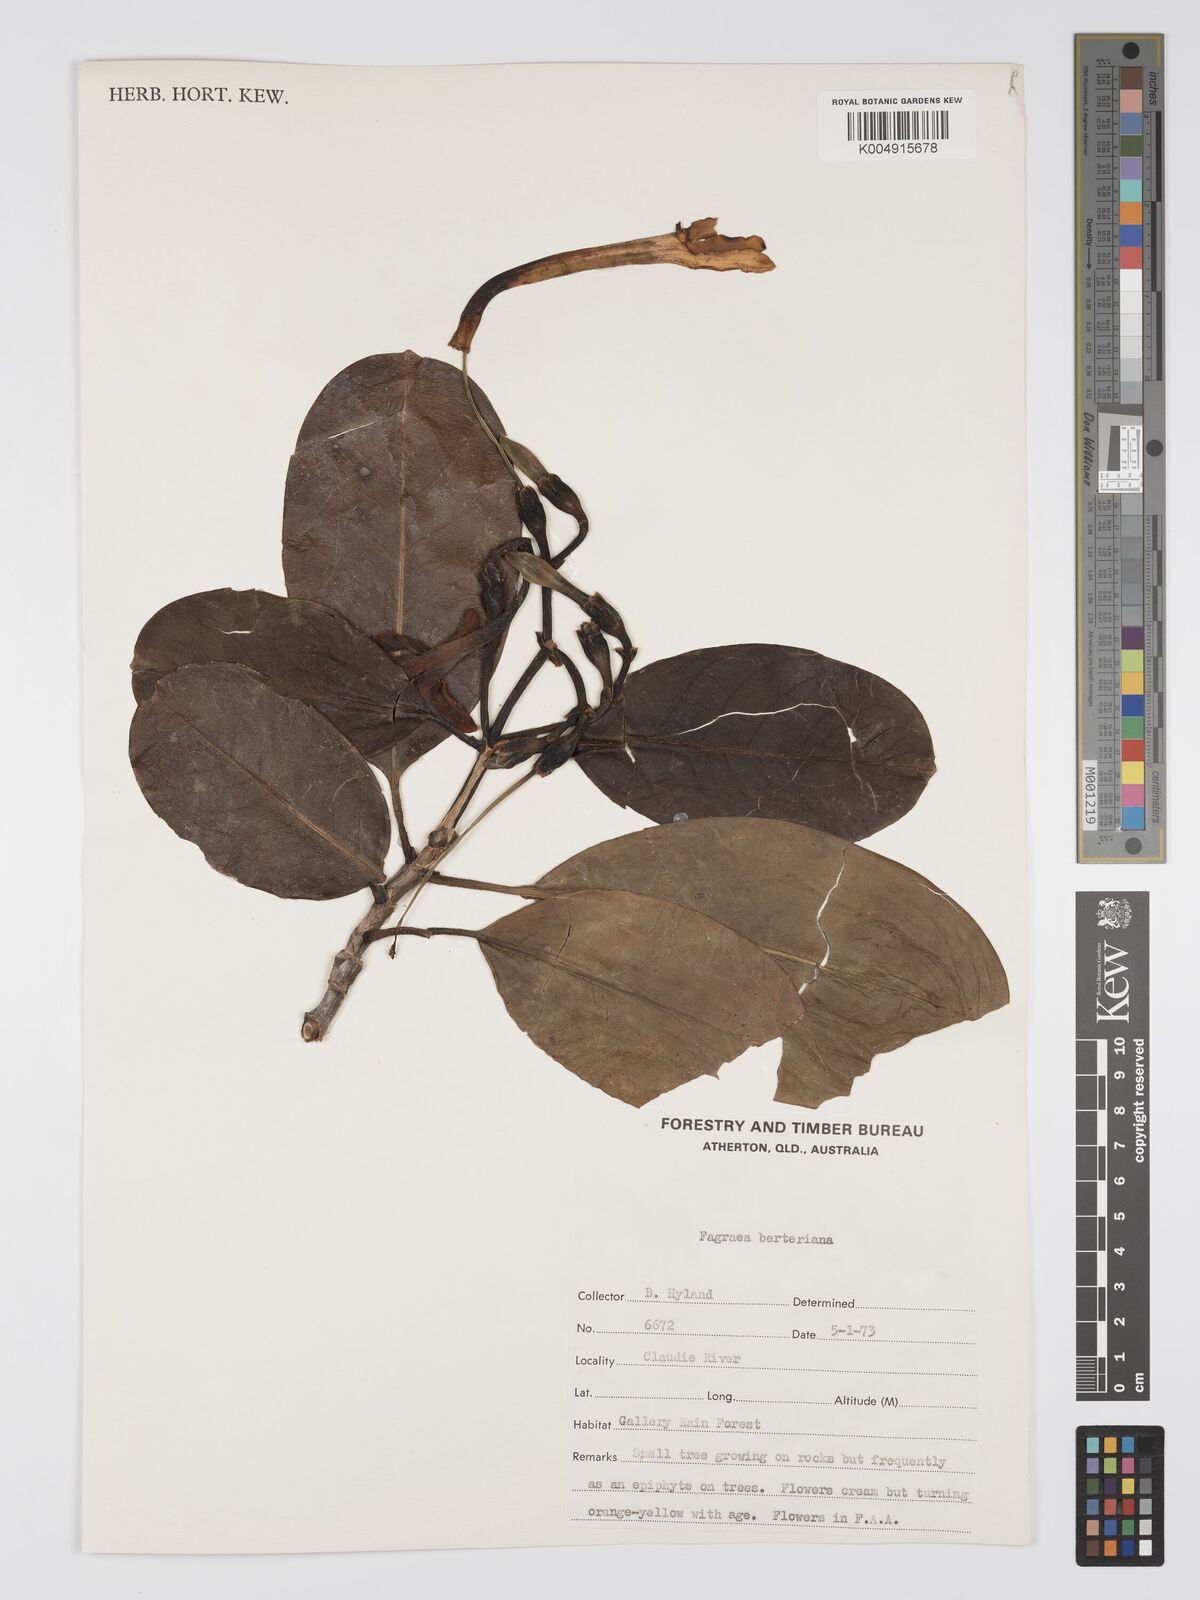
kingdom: Plantae
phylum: Tracheophyta
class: Magnoliopsida
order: Gentianales
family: Gentianaceae
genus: Fagraea
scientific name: Fagraea berteroana
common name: Cape jitta
